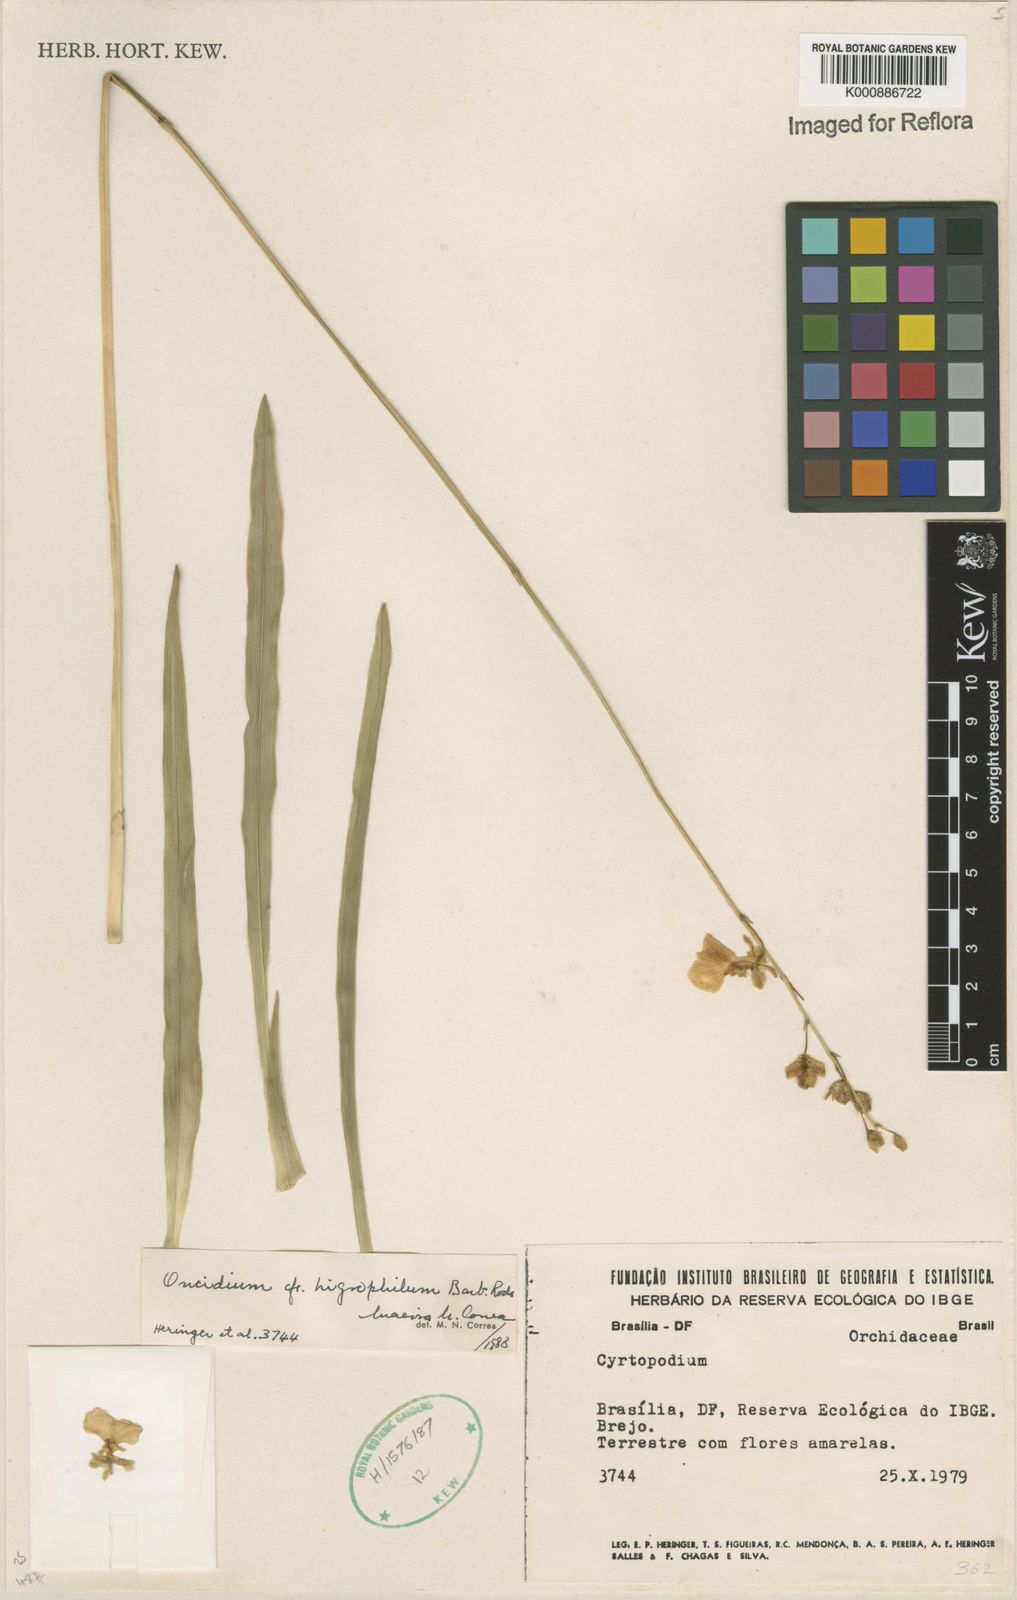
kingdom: Plantae
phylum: Tracheophyta
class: Liliopsida
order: Asparagales
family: Orchidaceae
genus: Gomesa
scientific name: Gomesa hydrophila
